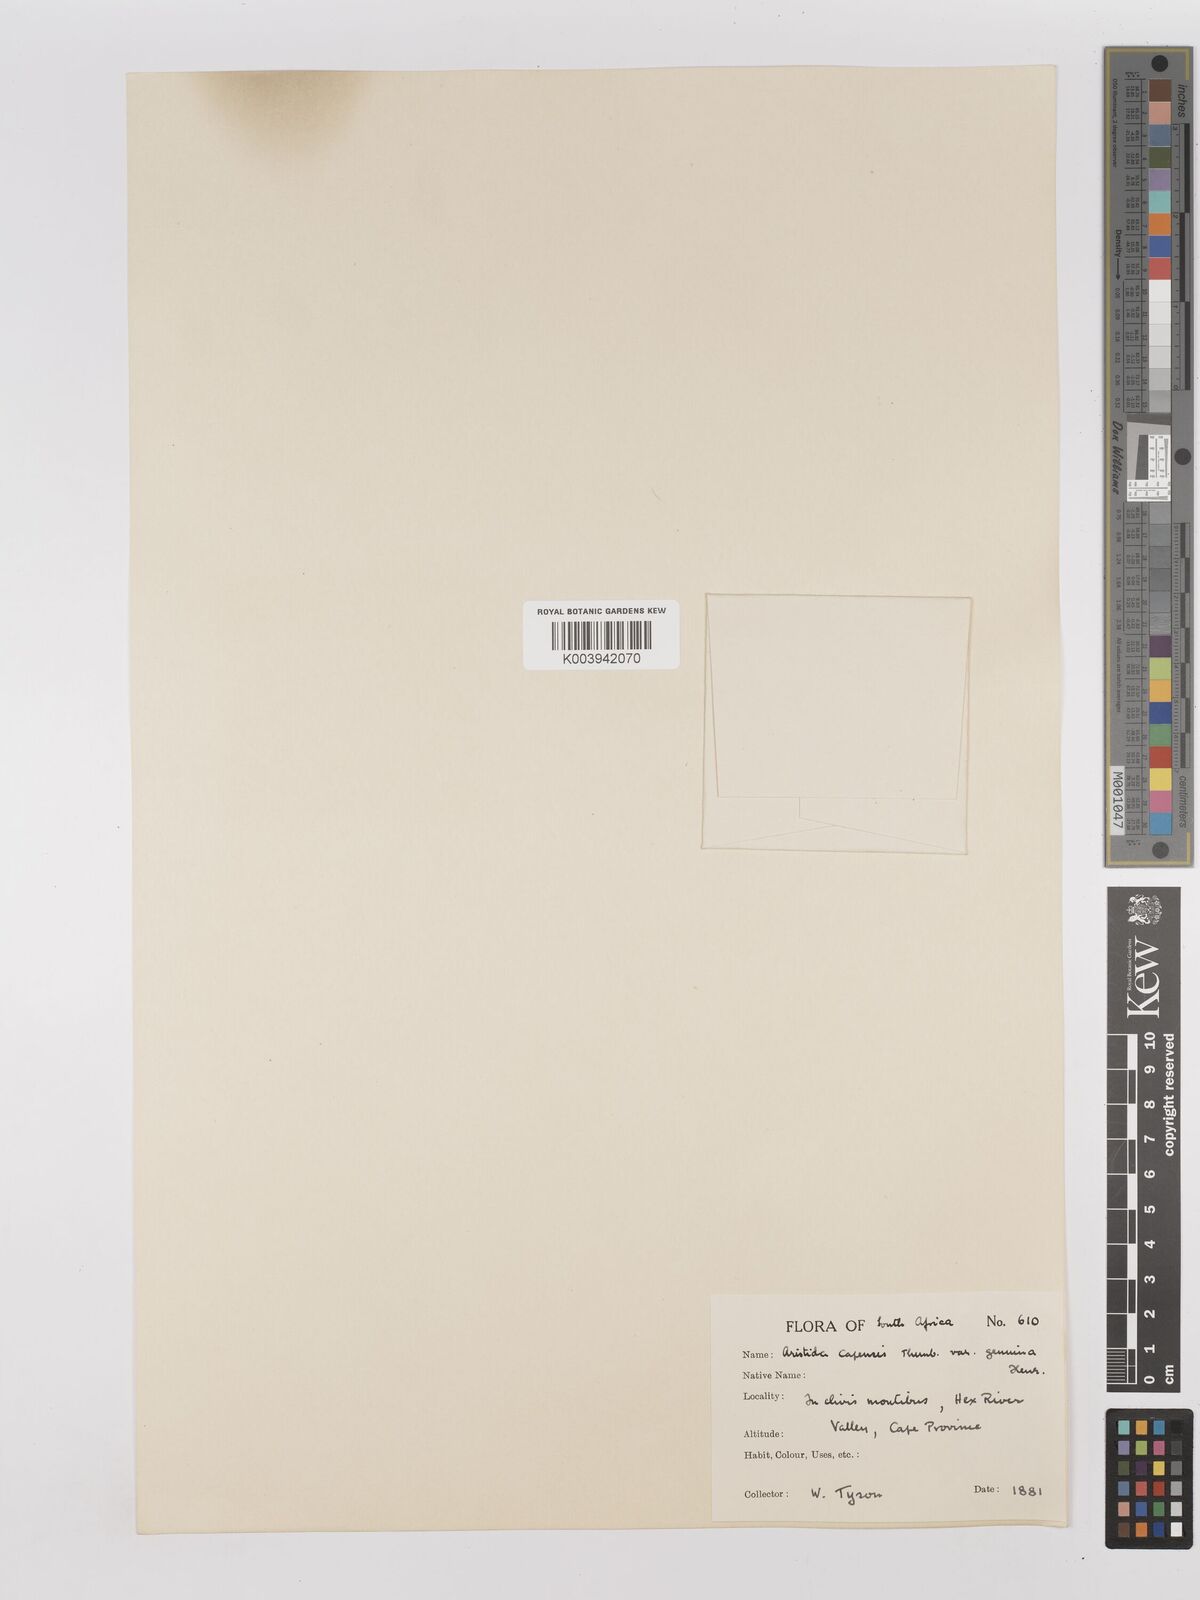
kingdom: Plantae
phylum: Tracheophyta
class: Liliopsida
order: Poales
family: Poaceae
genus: Stipagrostis
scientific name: Stipagrostis zeyheri
